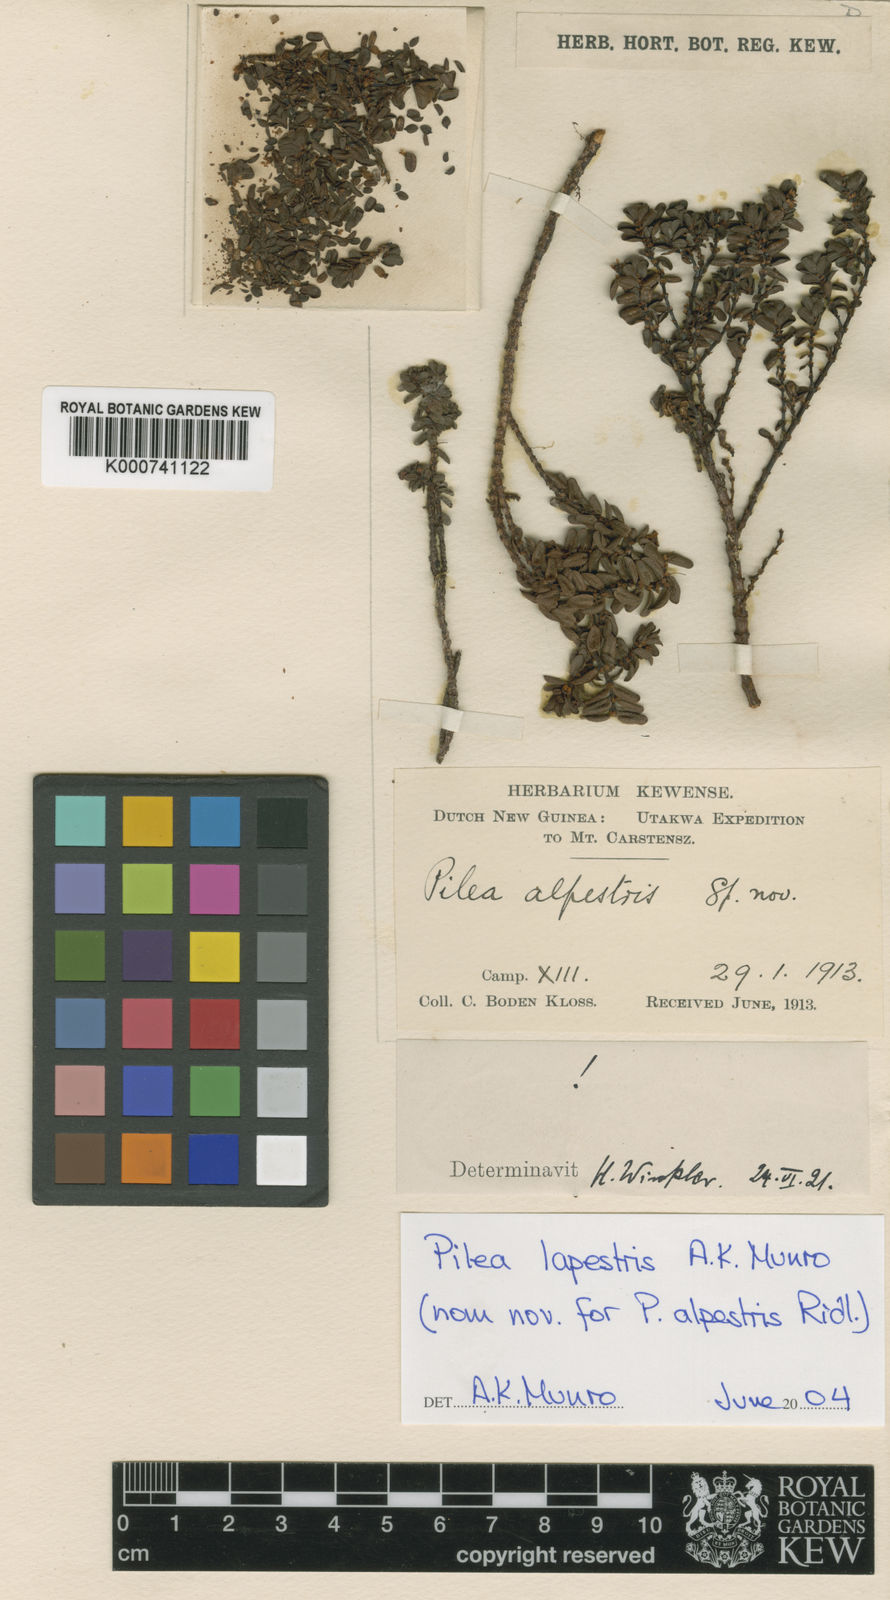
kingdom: Plantae
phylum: Tracheophyta
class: Magnoliopsida
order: Rosales
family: Urticaceae
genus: Pilea
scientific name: Pilea lapestris
